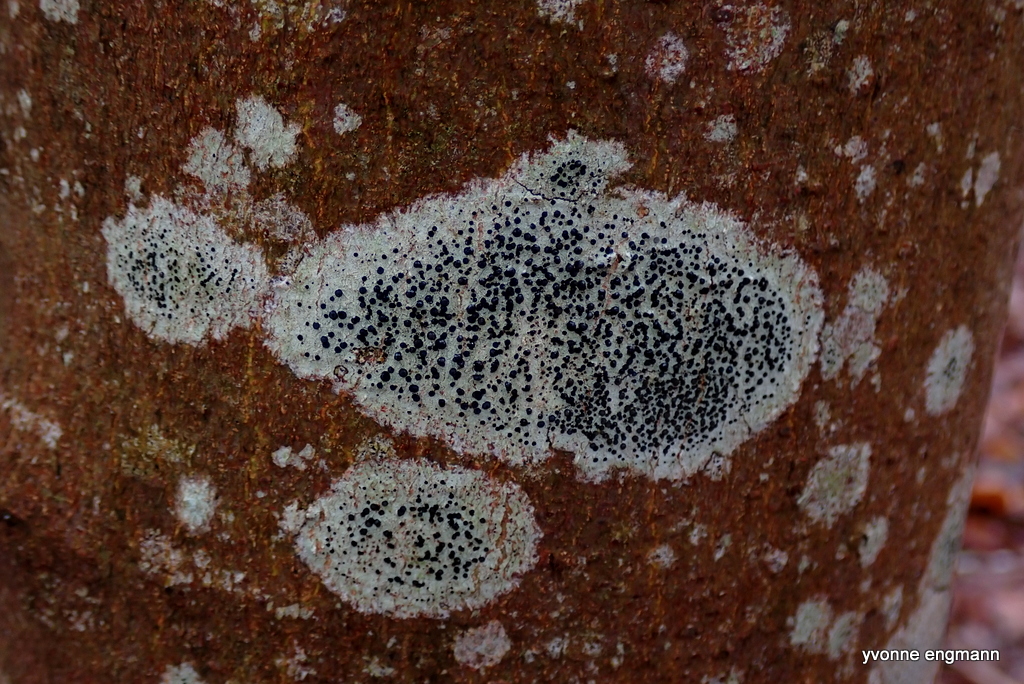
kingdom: Fungi
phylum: Ascomycota
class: Lecanoromycetes
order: Lecanorales
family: Lecanoraceae
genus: Lecidella
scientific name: Lecidella elaeochroma
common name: grågrøn skivelav
